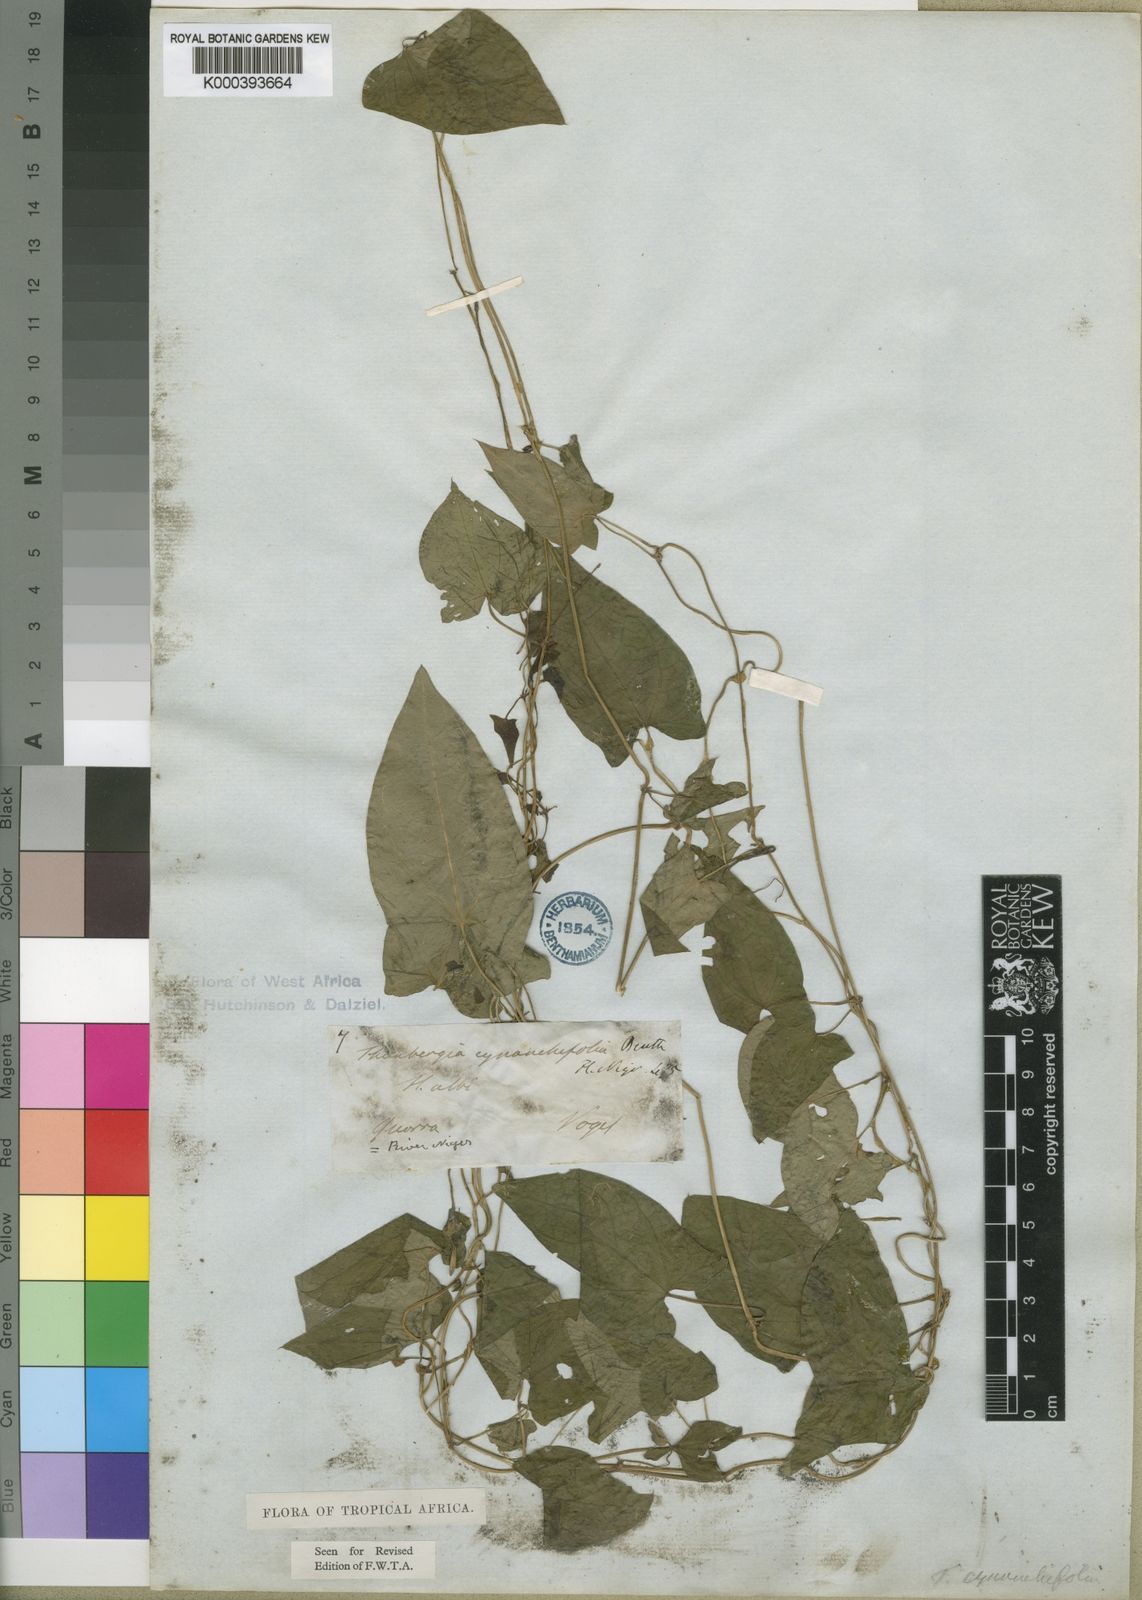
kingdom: Plantae
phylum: Tracheophyta
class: Magnoliopsida
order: Lamiales
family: Acanthaceae
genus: Thunbergia
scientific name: Thunbergia cynanchifolia
